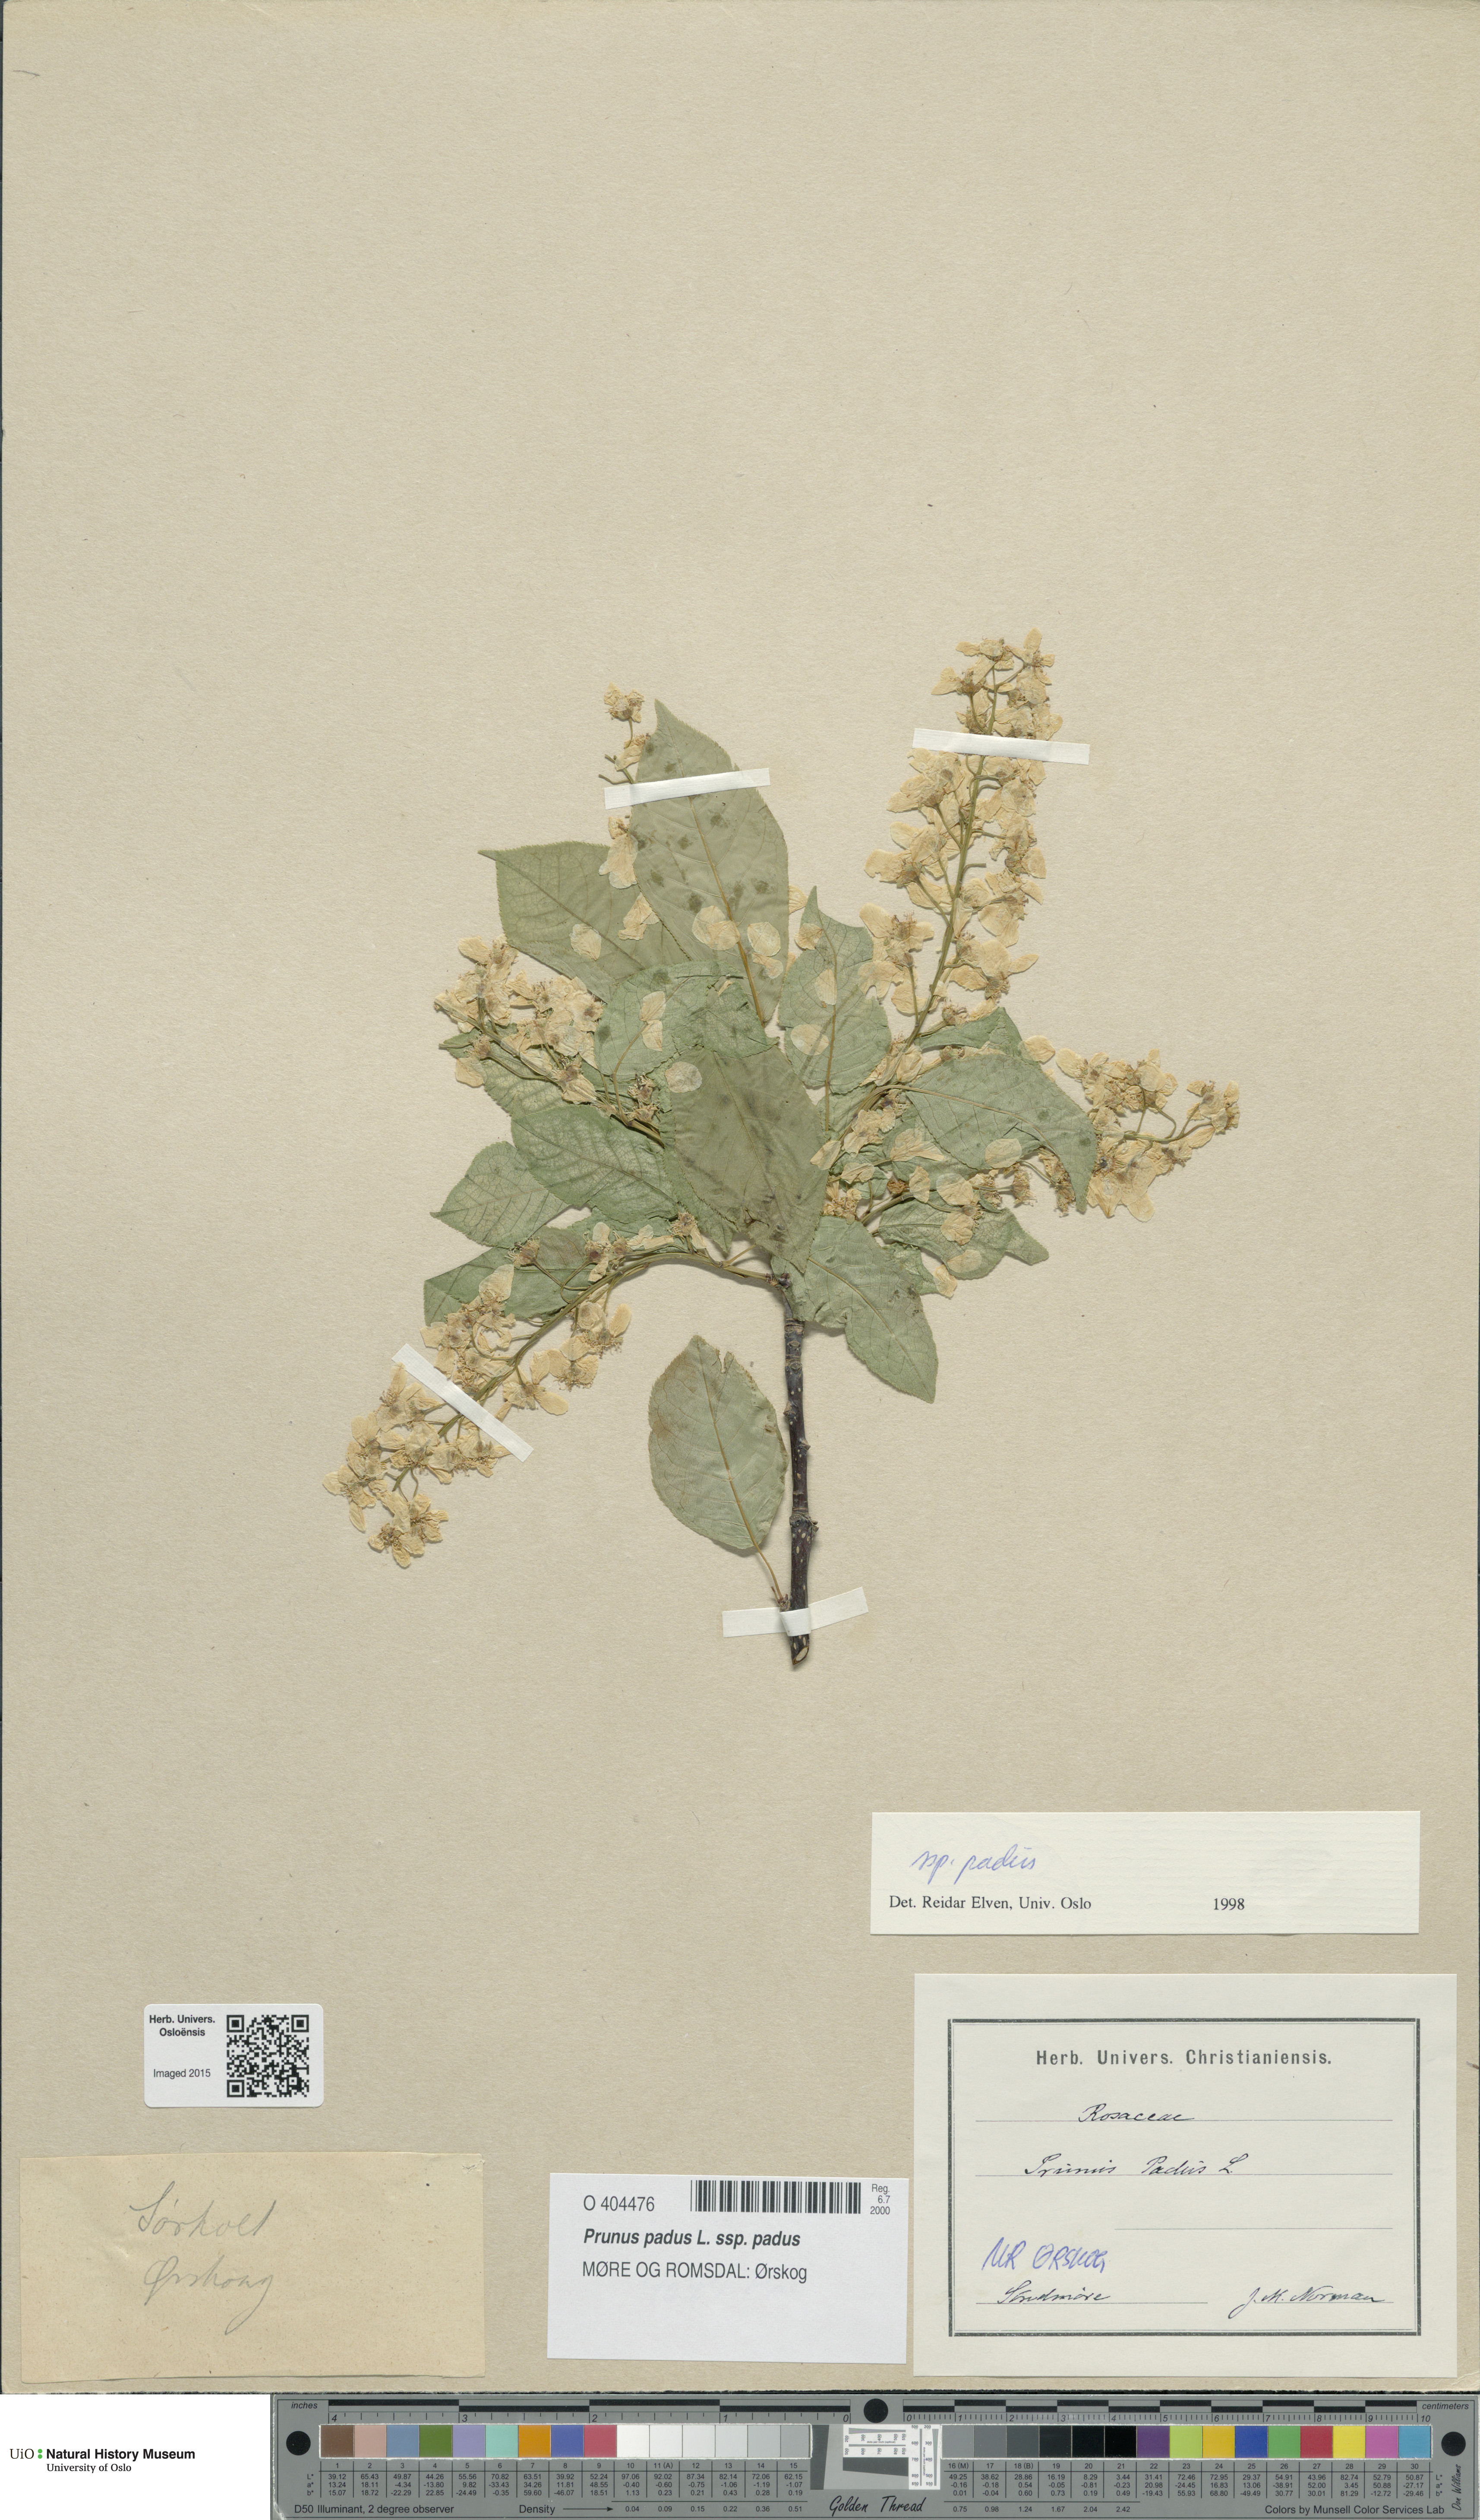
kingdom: Plantae
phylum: Tracheophyta
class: Magnoliopsida
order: Rosales
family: Rosaceae
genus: Prunus
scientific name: Prunus padus
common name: Bird cherry
